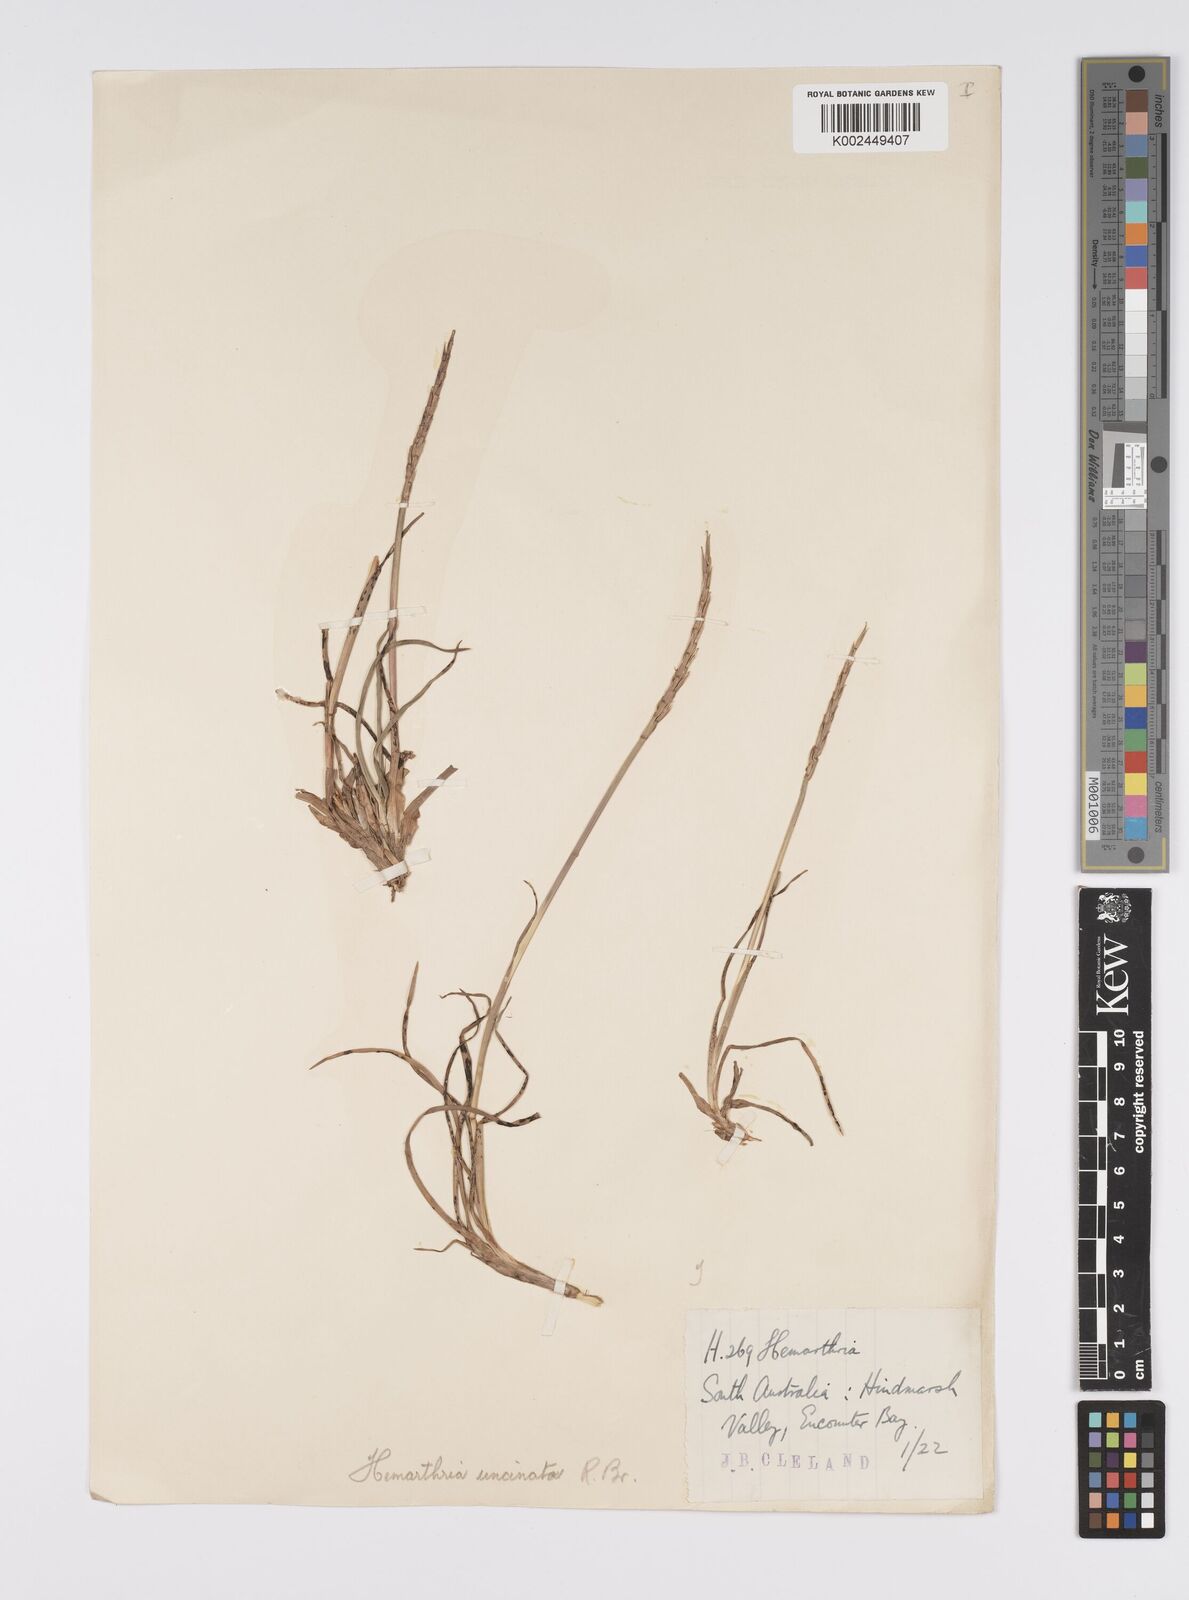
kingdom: Plantae
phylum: Tracheophyta
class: Liliopsida
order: Poales
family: Poaceae
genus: Hemarthria
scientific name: Hemarthria uncinata
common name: Matgrass
